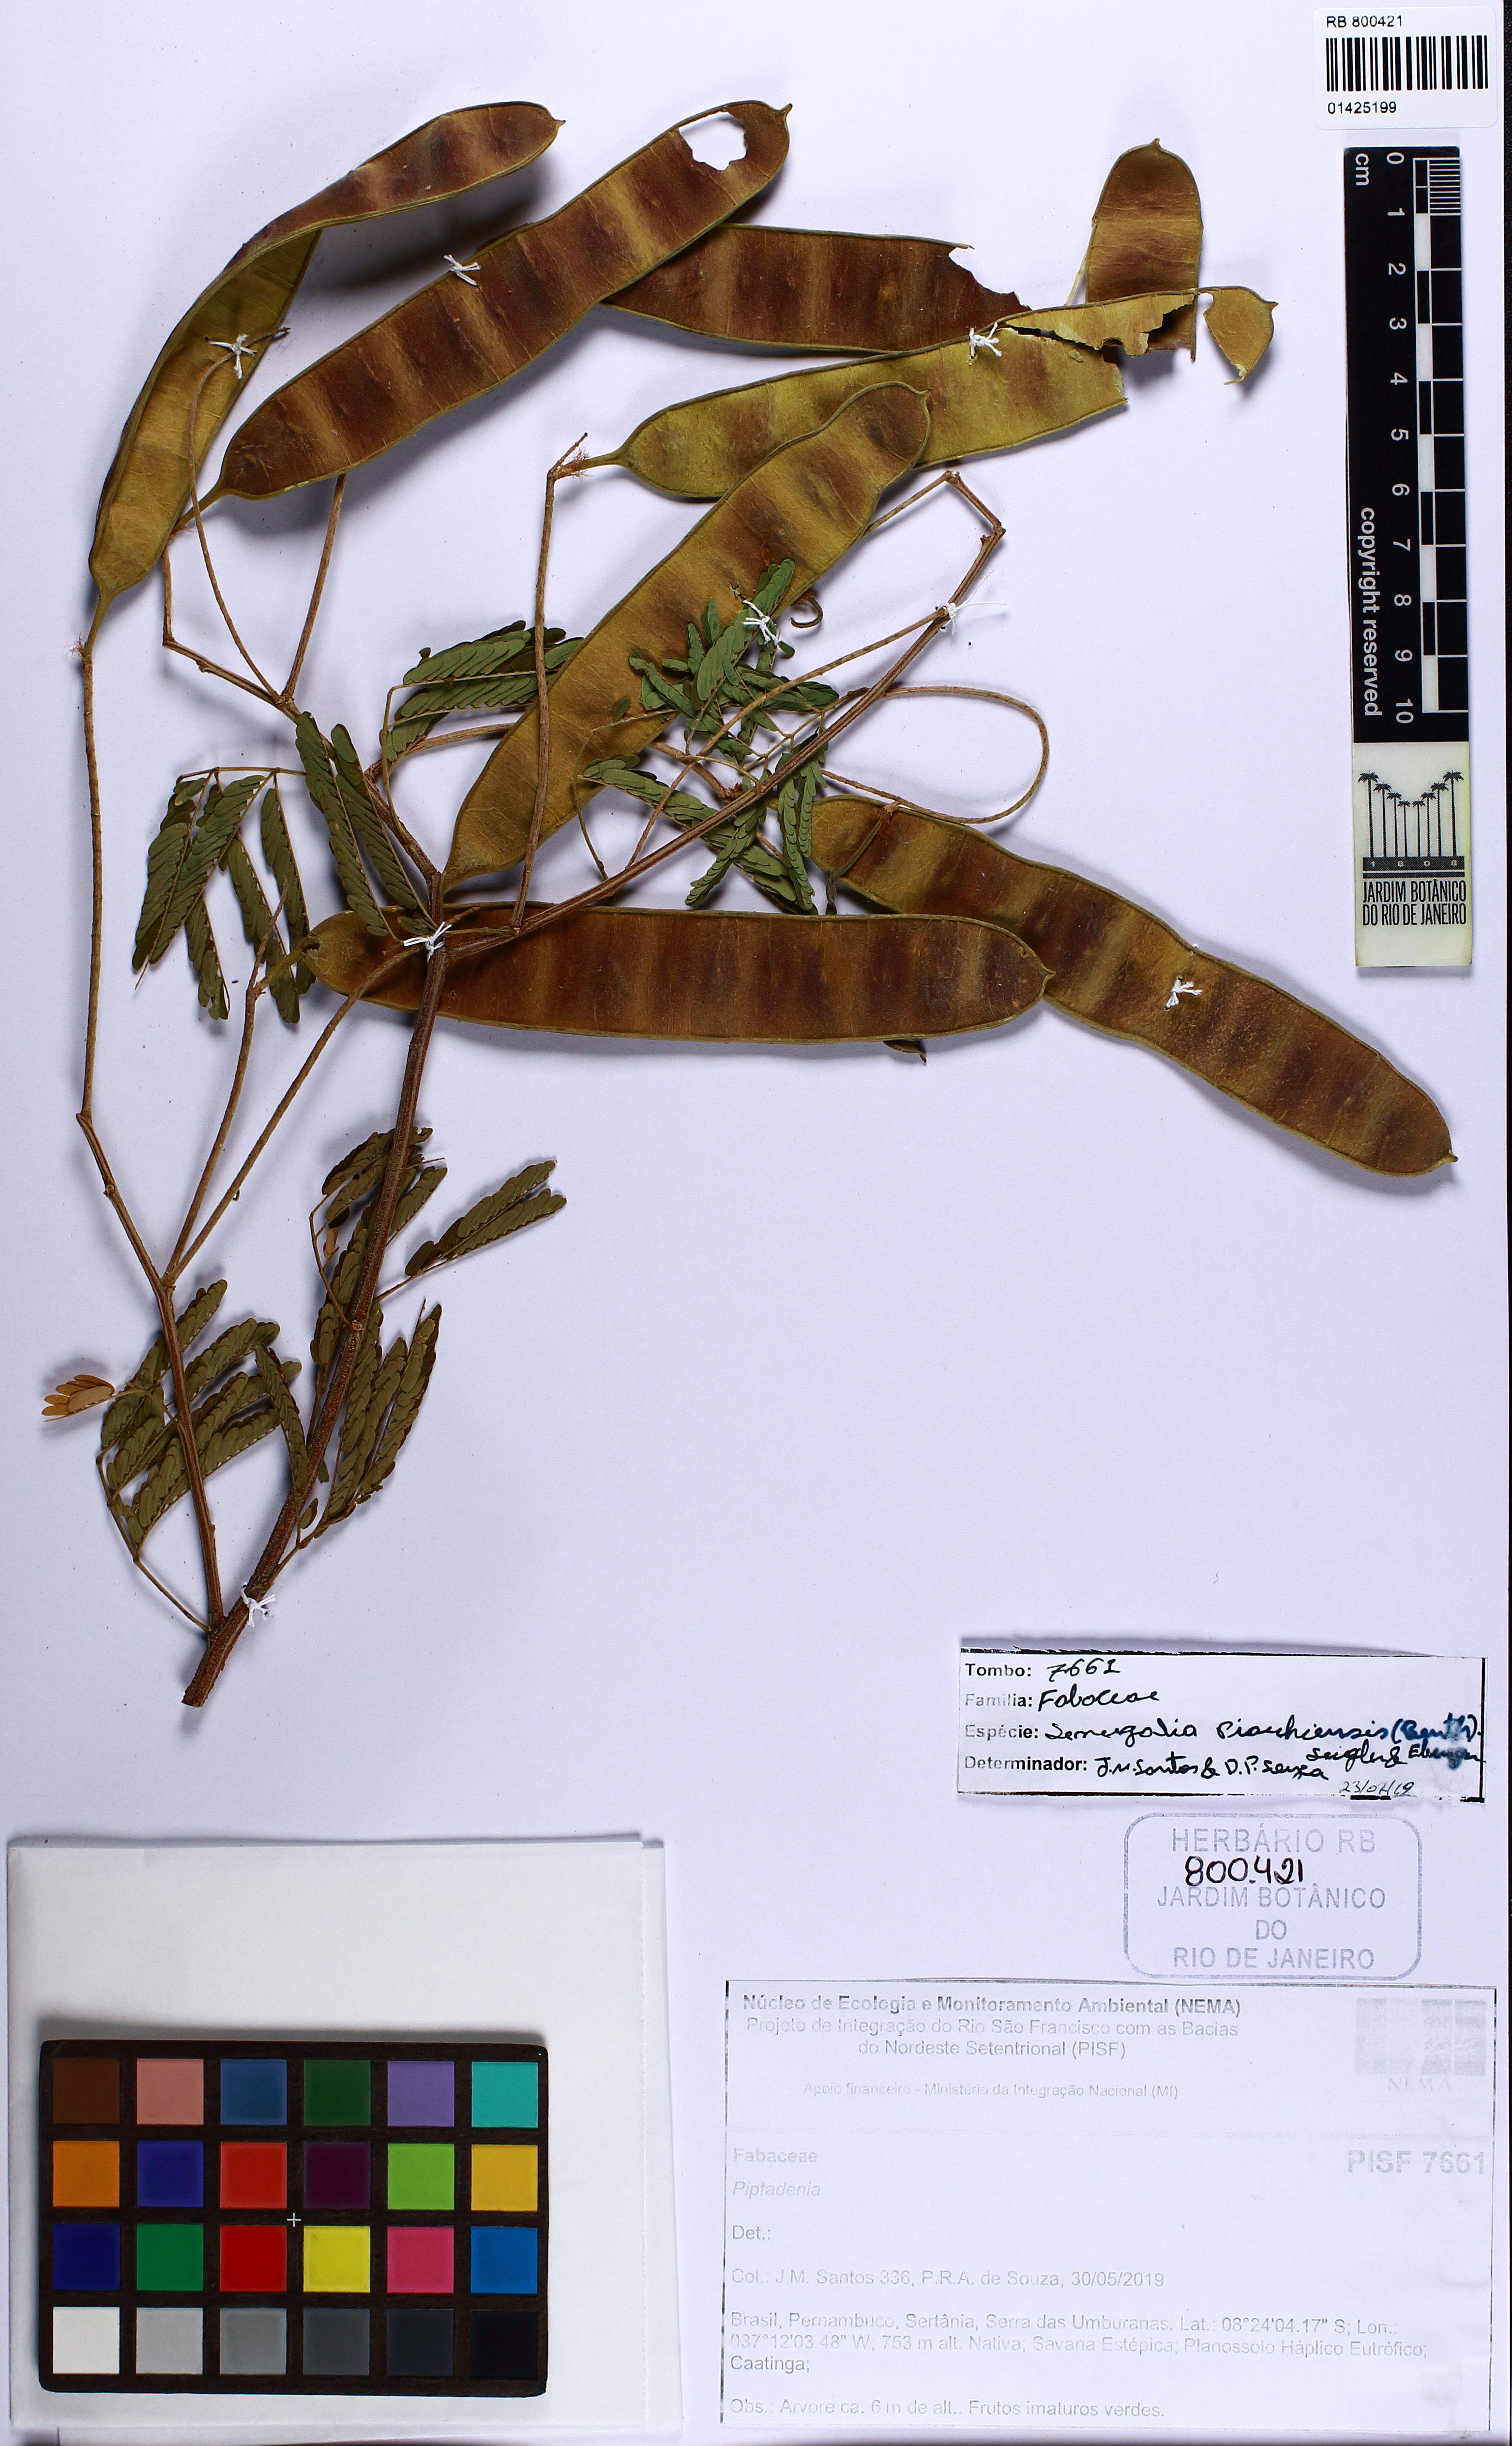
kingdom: Plantae
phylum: Tracheophyta
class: Magnoliopsida
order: Fabales
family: Fabaceae
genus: Senegalia
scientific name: Senegalia piauhiensis
